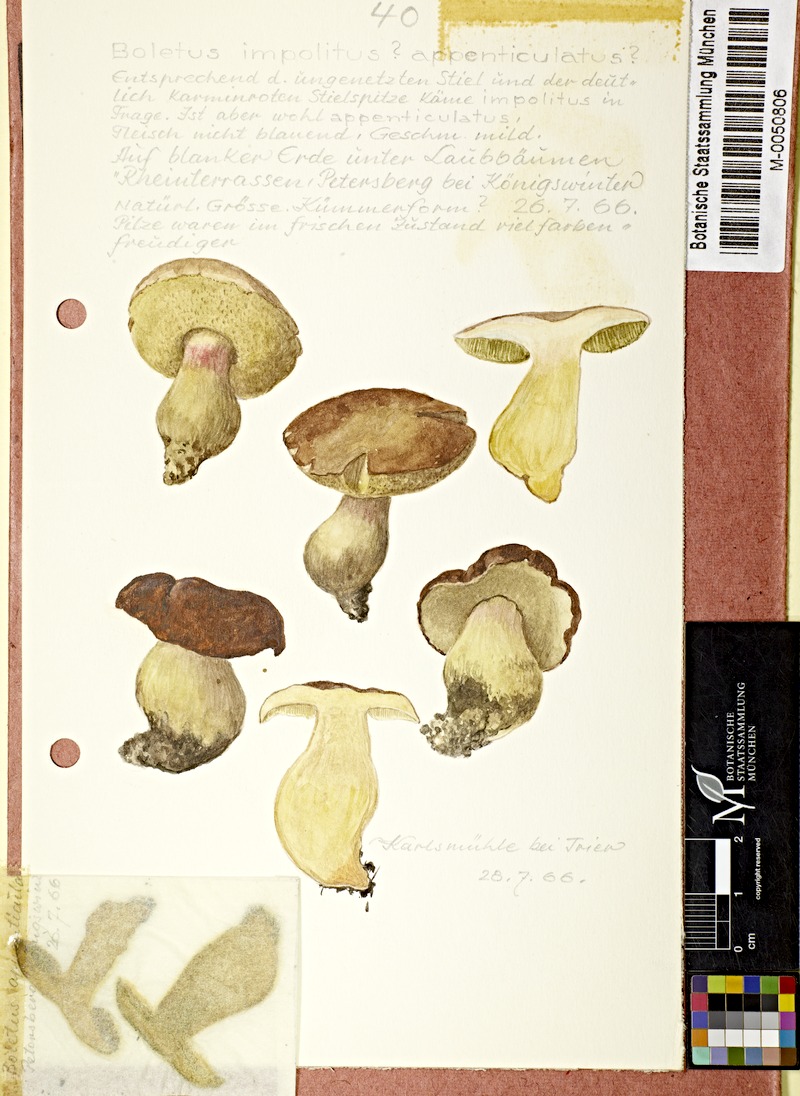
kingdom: Fungi
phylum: Basidiomycota
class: Agaricomycetes
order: Boletales
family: Boletaceae
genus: Hemileccinum
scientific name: Hemileccinum impolitum
